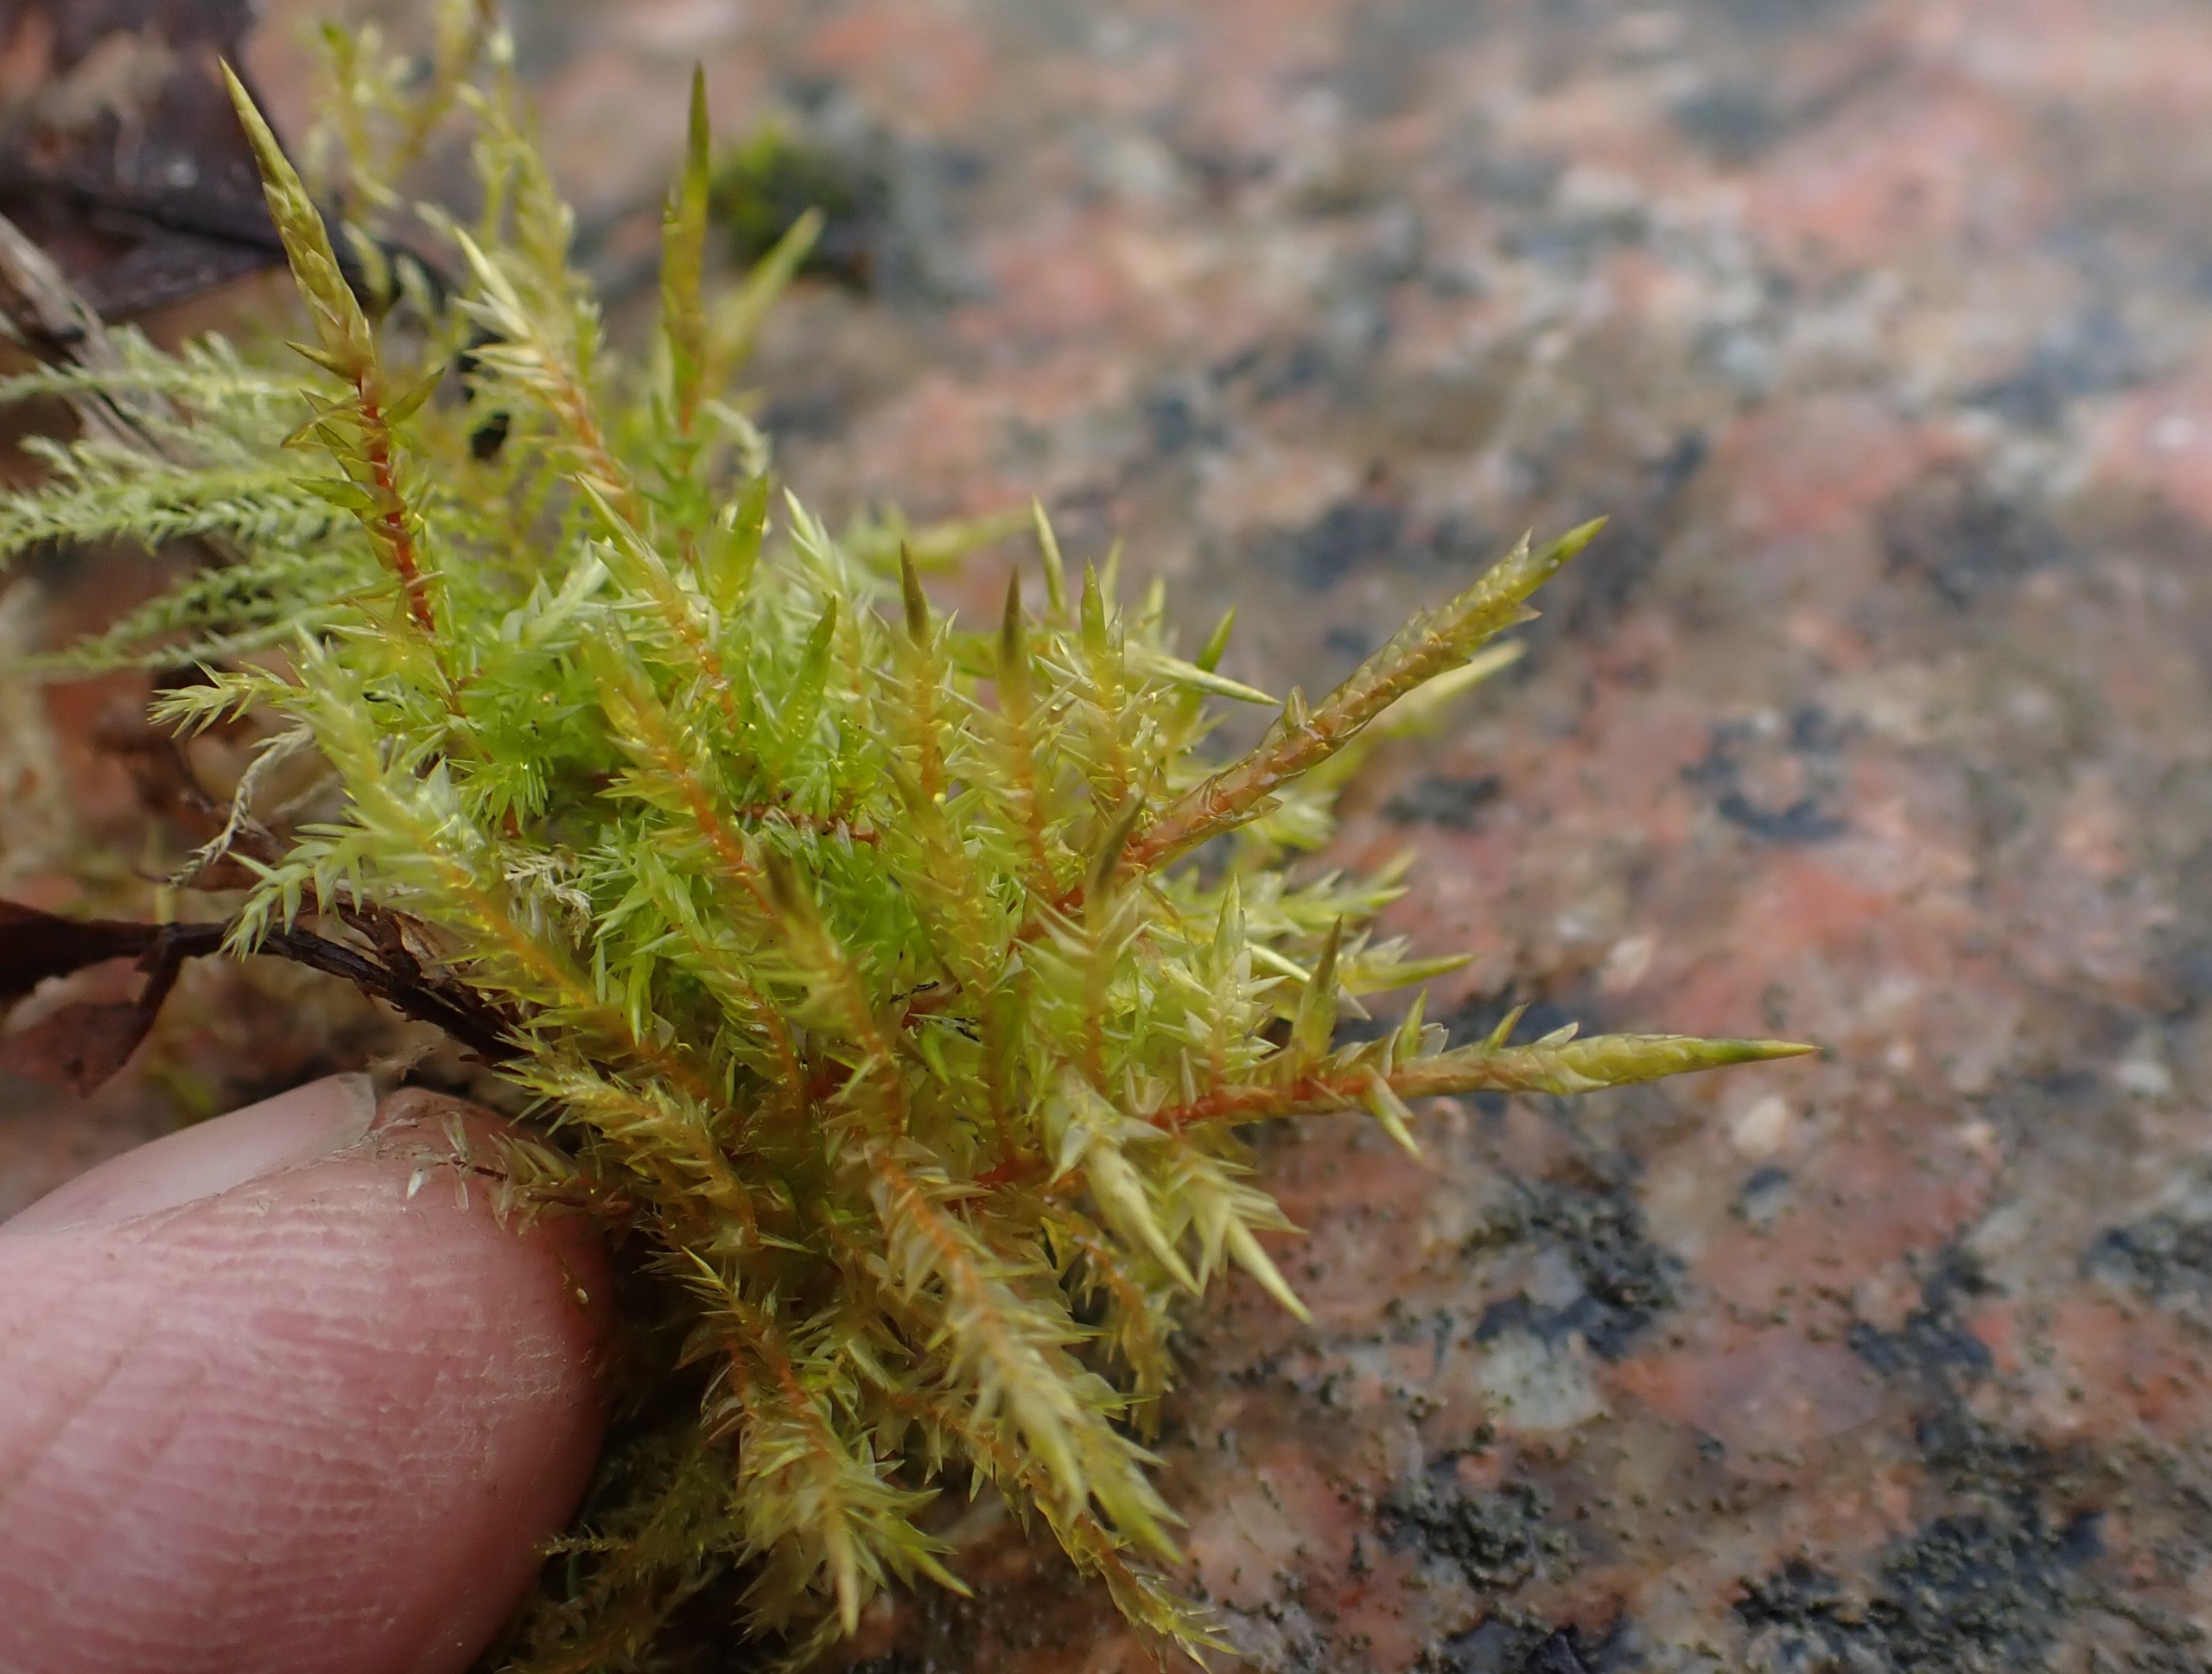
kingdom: Plantae
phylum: Bryophyta
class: Bryopsida
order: Hypnales
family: Pylaisiaceae
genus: Calliergonella
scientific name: Calliergonella cuspidata
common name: Spids spydmos
